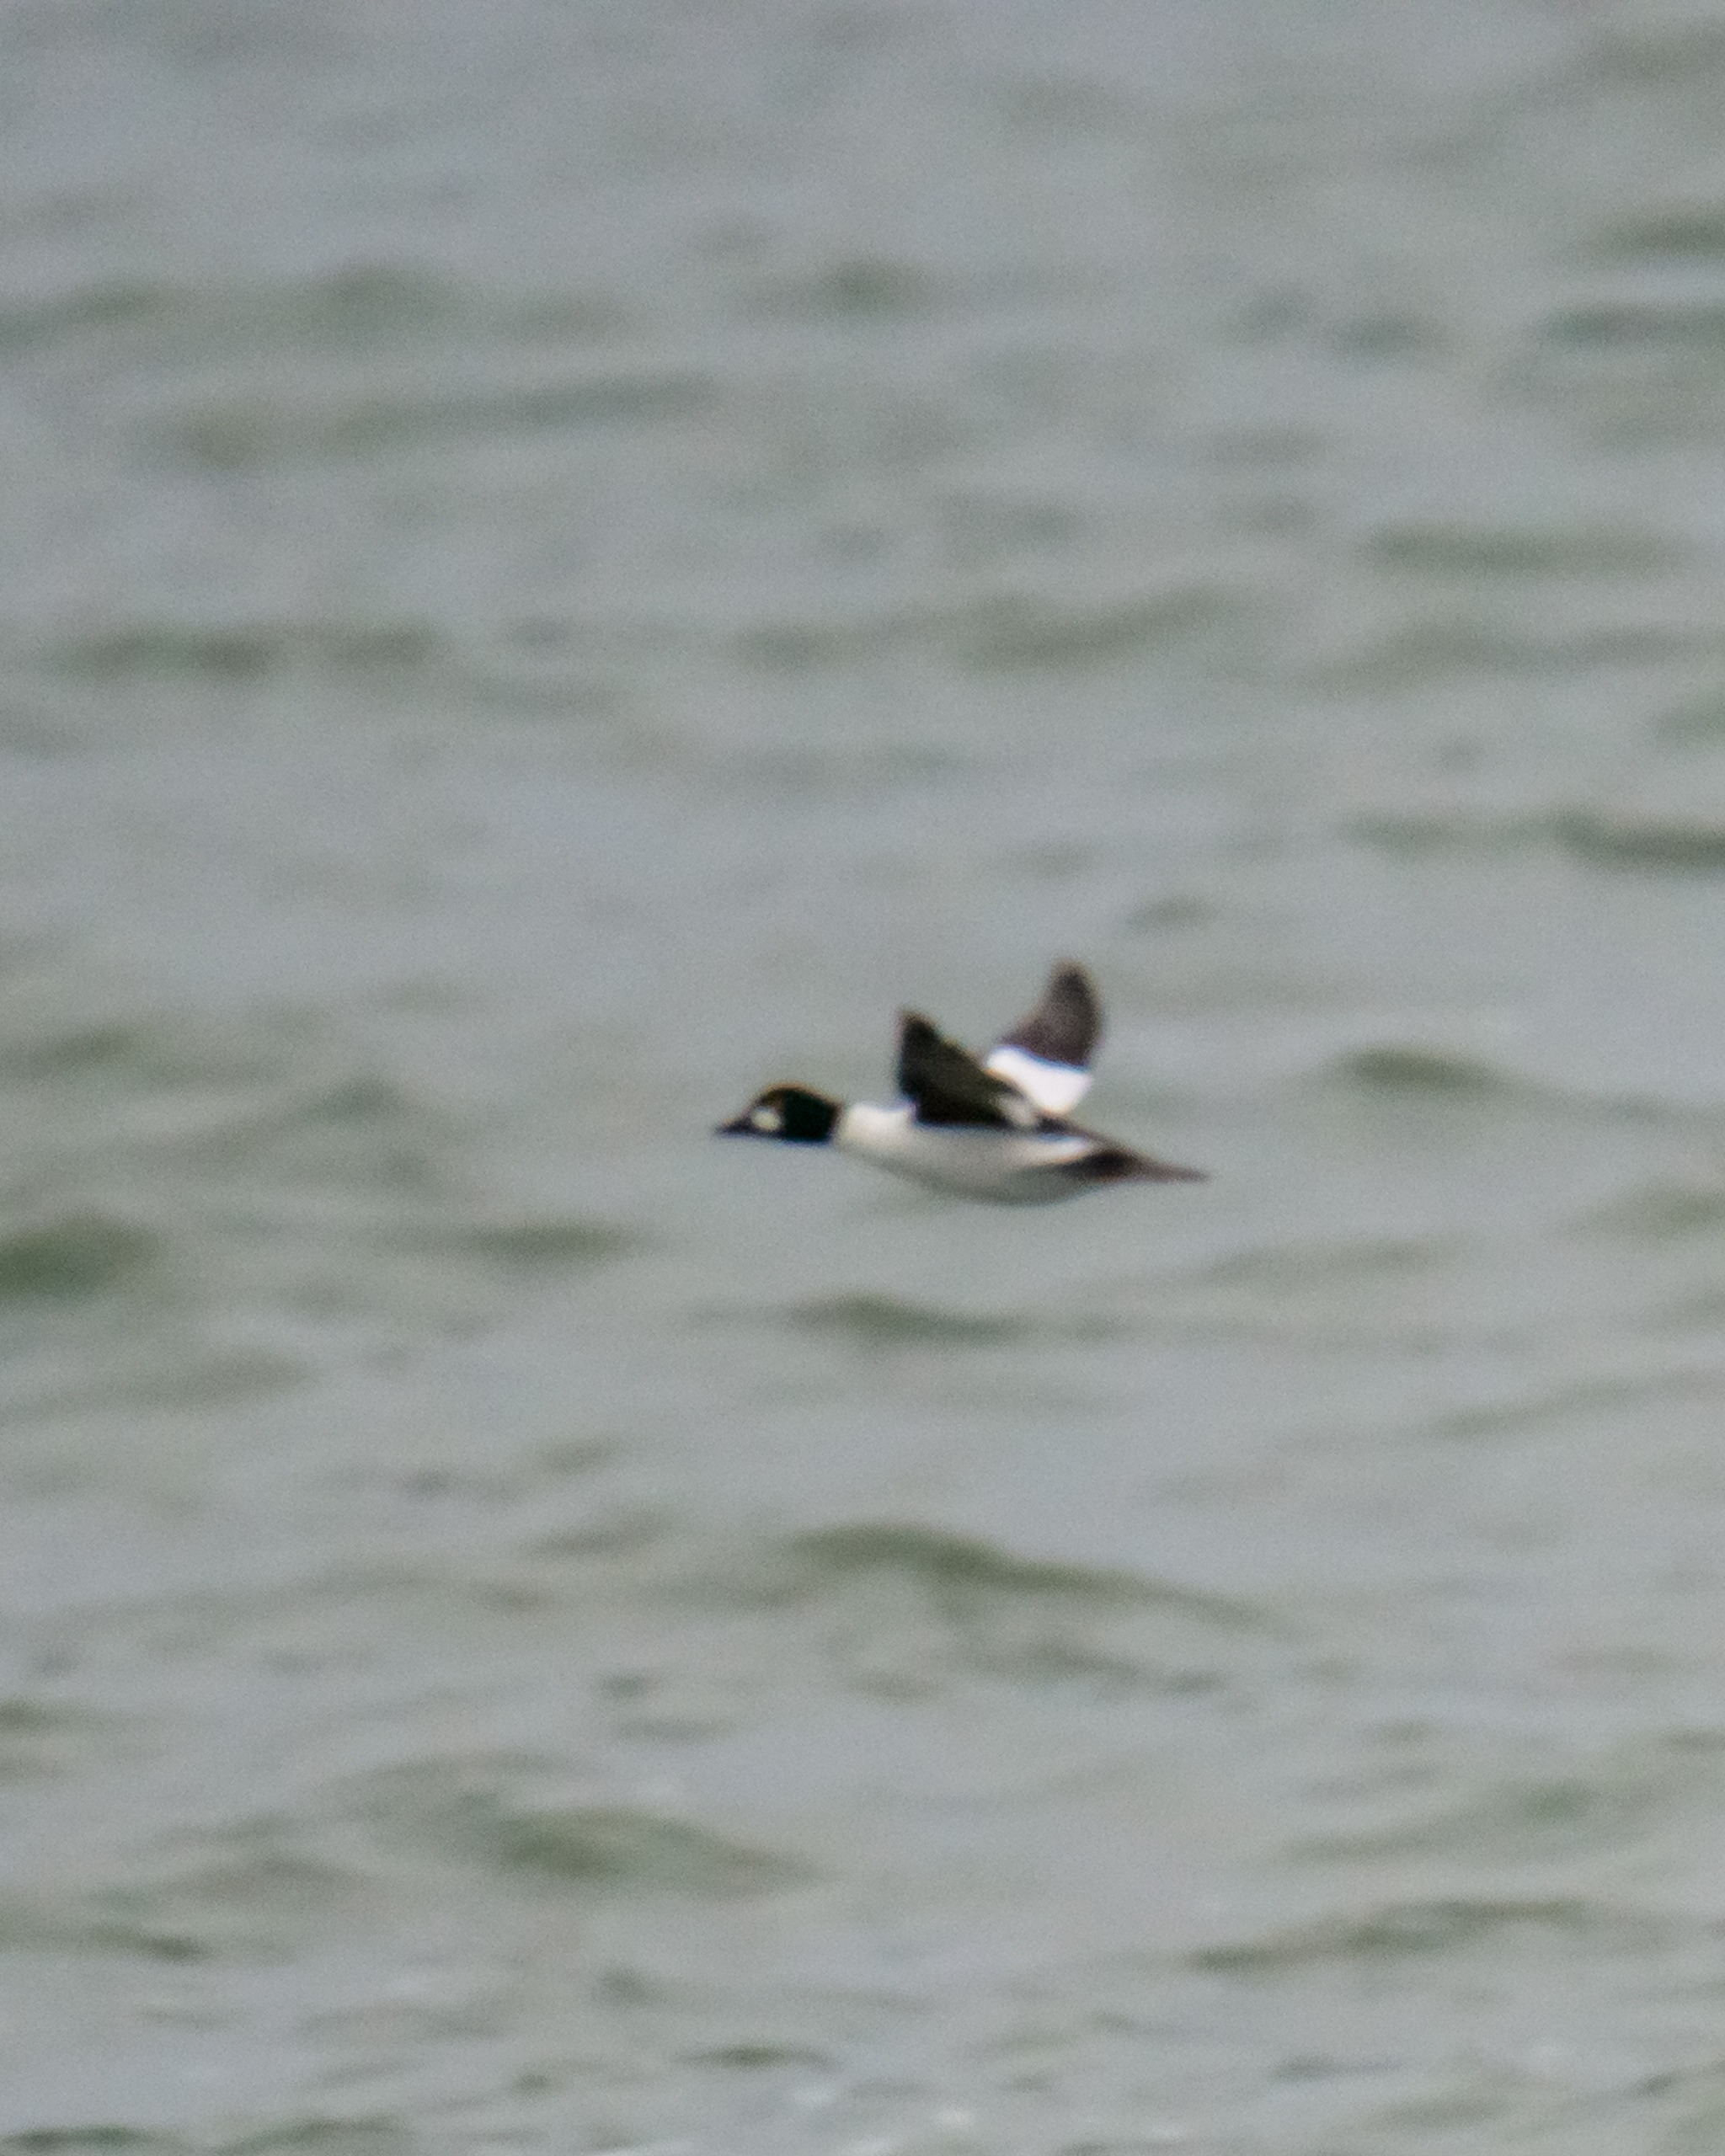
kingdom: Animalia
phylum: Chordata
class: Aves
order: Anseriformes
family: Anatidae
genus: Bucephala
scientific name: Bucephala clangula
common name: Hvinand
